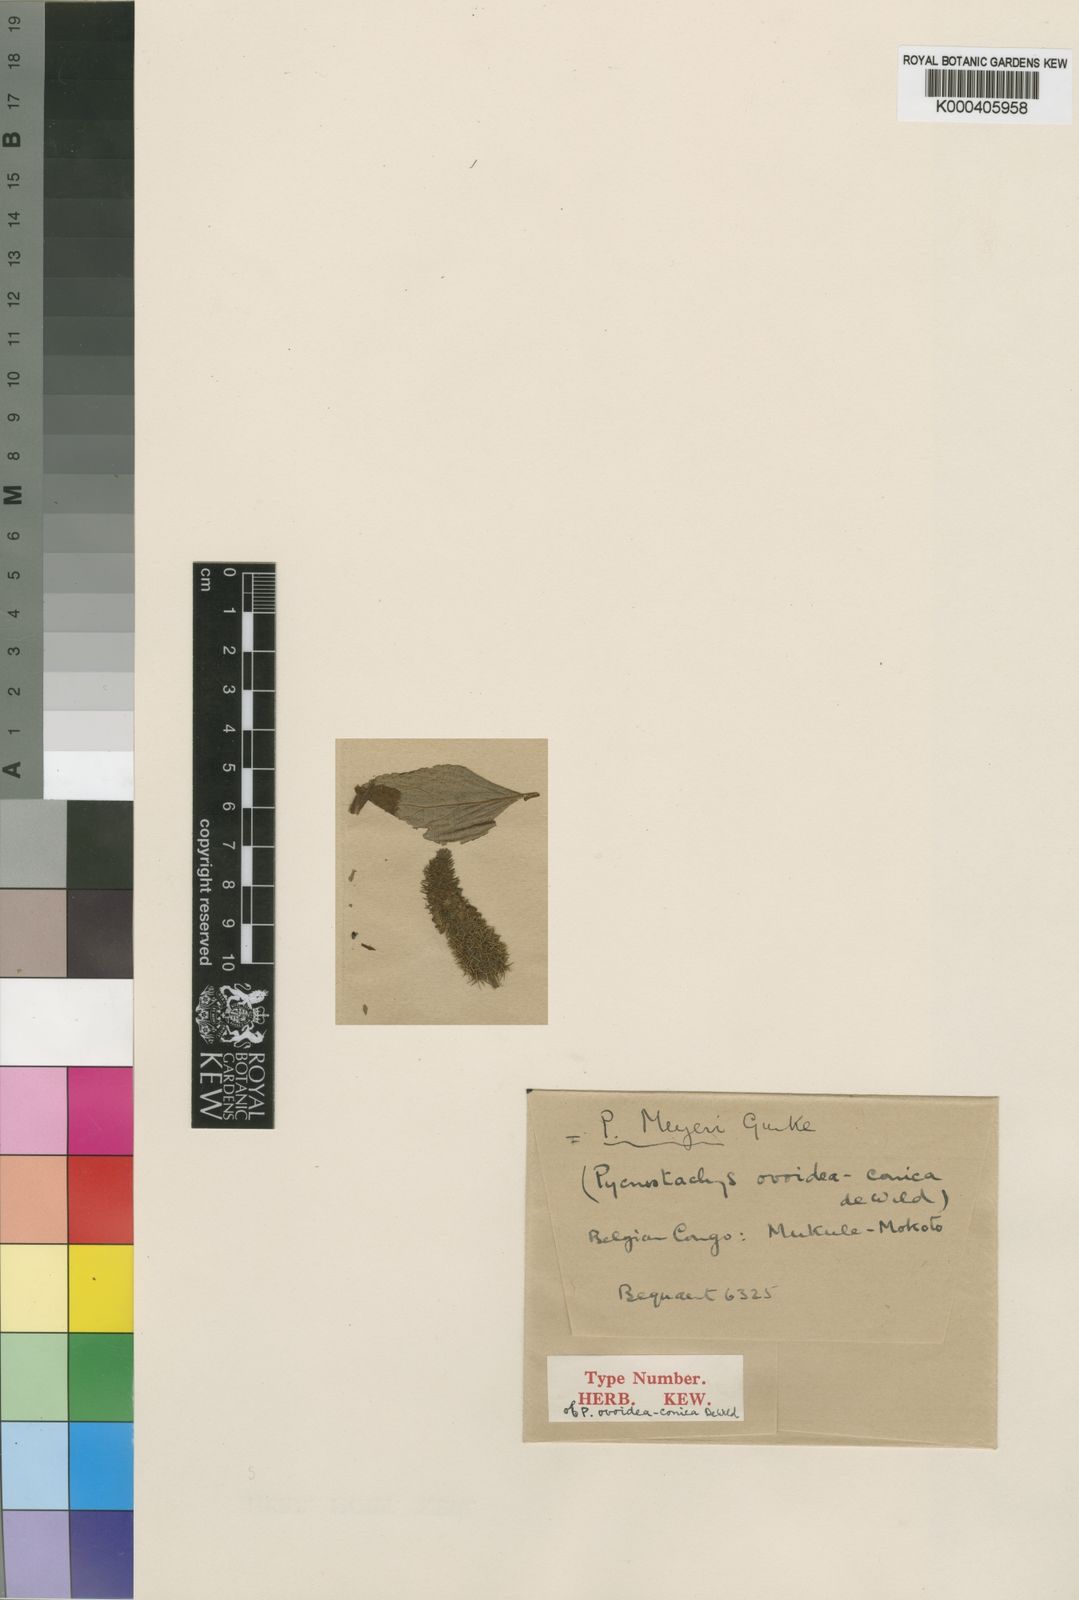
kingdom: Plantae
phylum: Tracheophyta
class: Magnoliopsida
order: Lamiales
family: Lamiaceae
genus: Coleus
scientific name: Coleus
